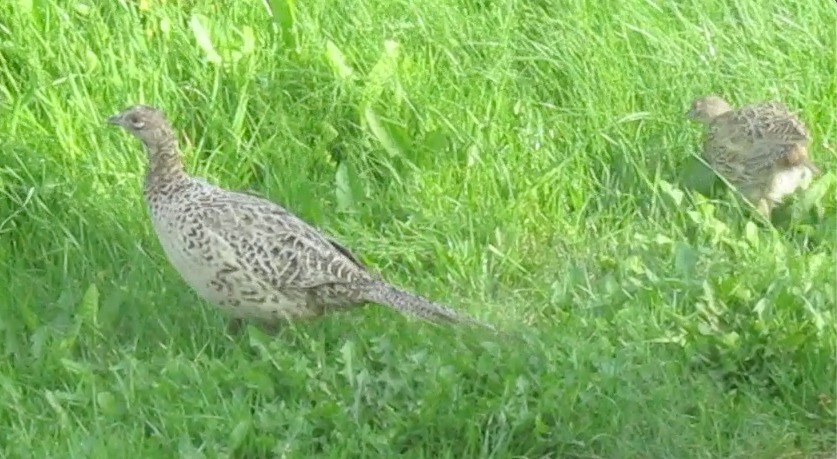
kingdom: Animalia
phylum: Chordata
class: Aves
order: Galliformes
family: Phasianidae
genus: Phasianus
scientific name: Phasianus colchicus
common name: Fasan
